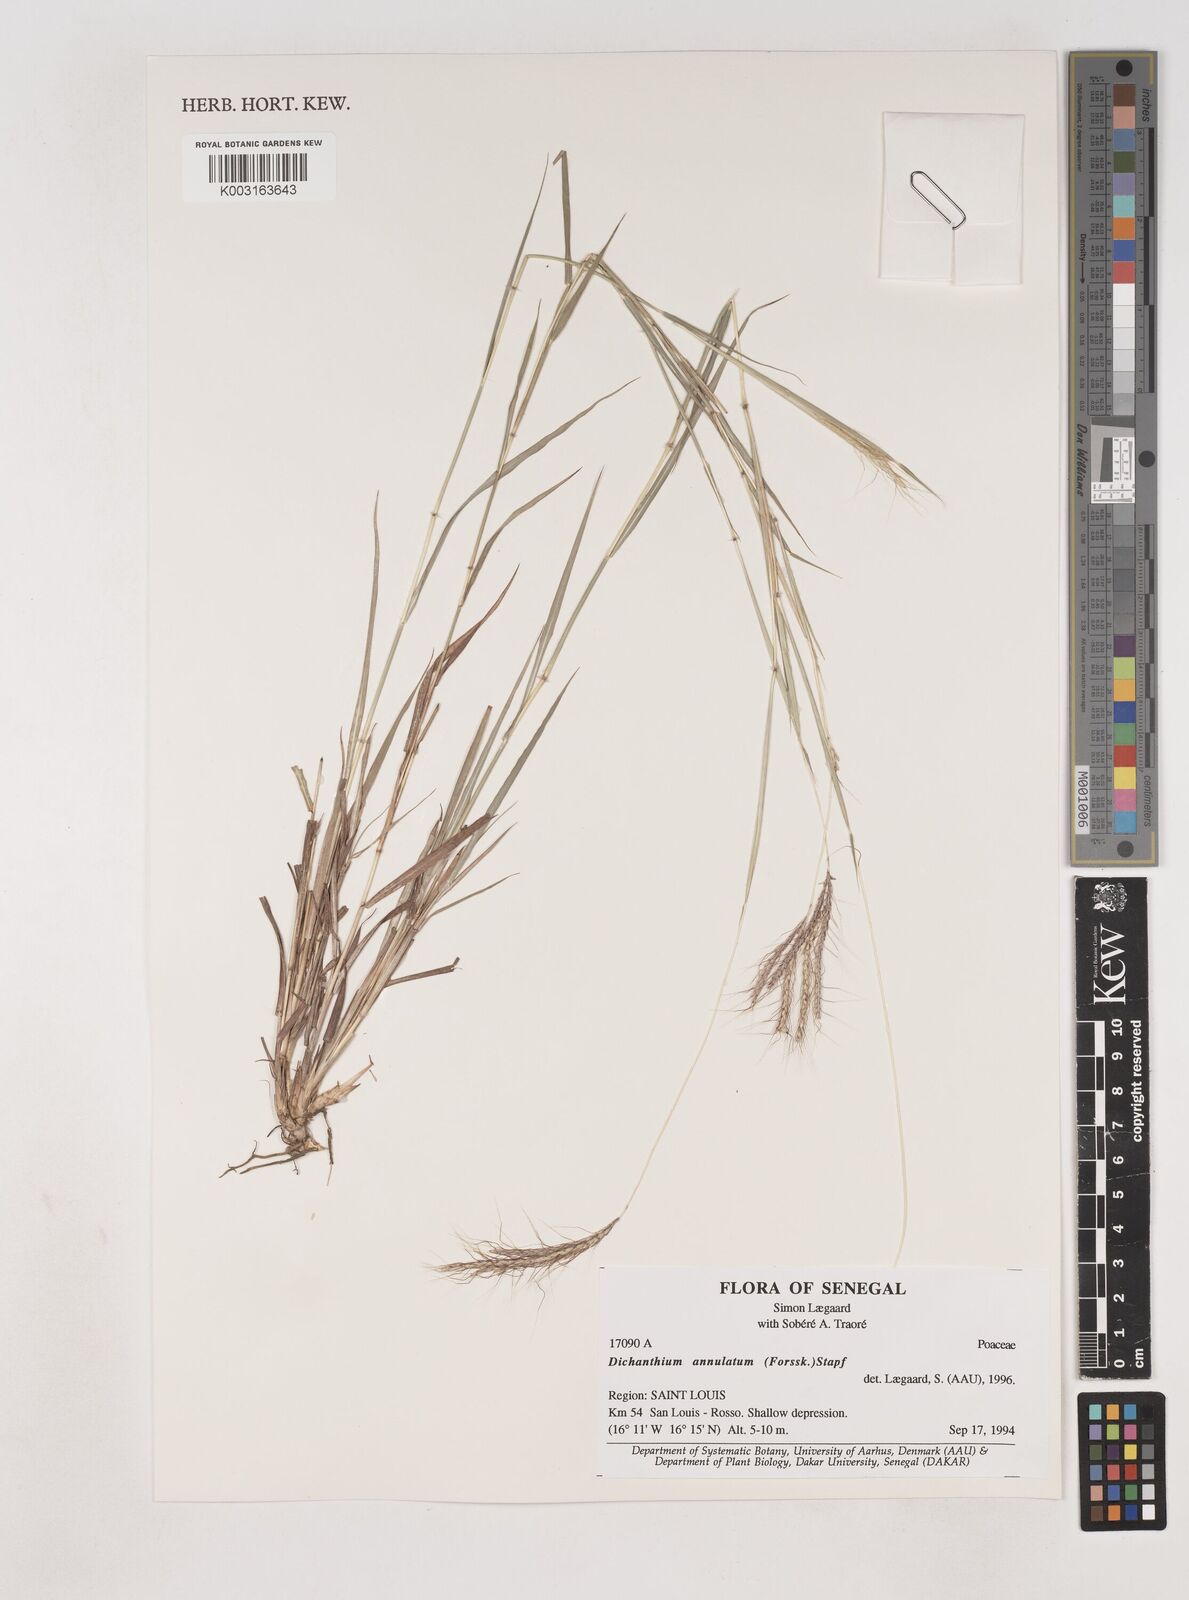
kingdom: Plantae
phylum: Tracheophyta
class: Liliopsida
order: Poales
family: Poaceae
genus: Dichanthium
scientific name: Dichanthium annulatum
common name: Kleberg's bluestem
